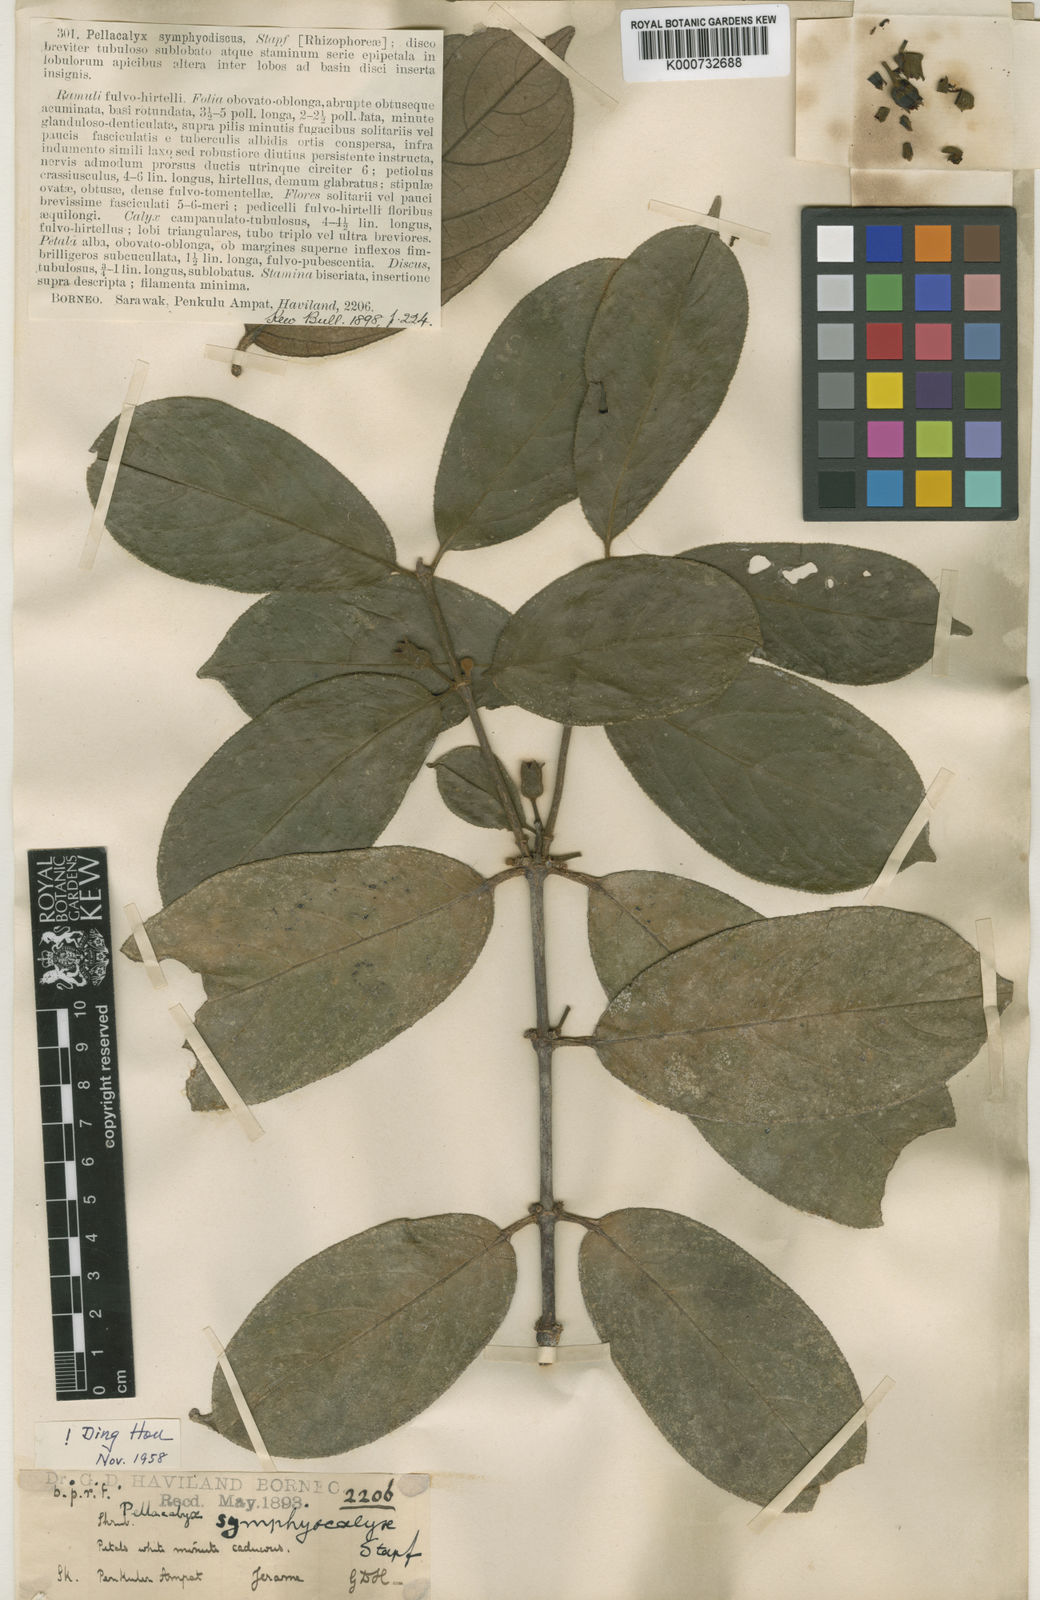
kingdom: Plantae
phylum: Tracheophyta
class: Magnoliopsida
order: Malpighiales
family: Rhizophoraceae
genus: Pellacalyx
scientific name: Pellacalyx symphiodiscus
